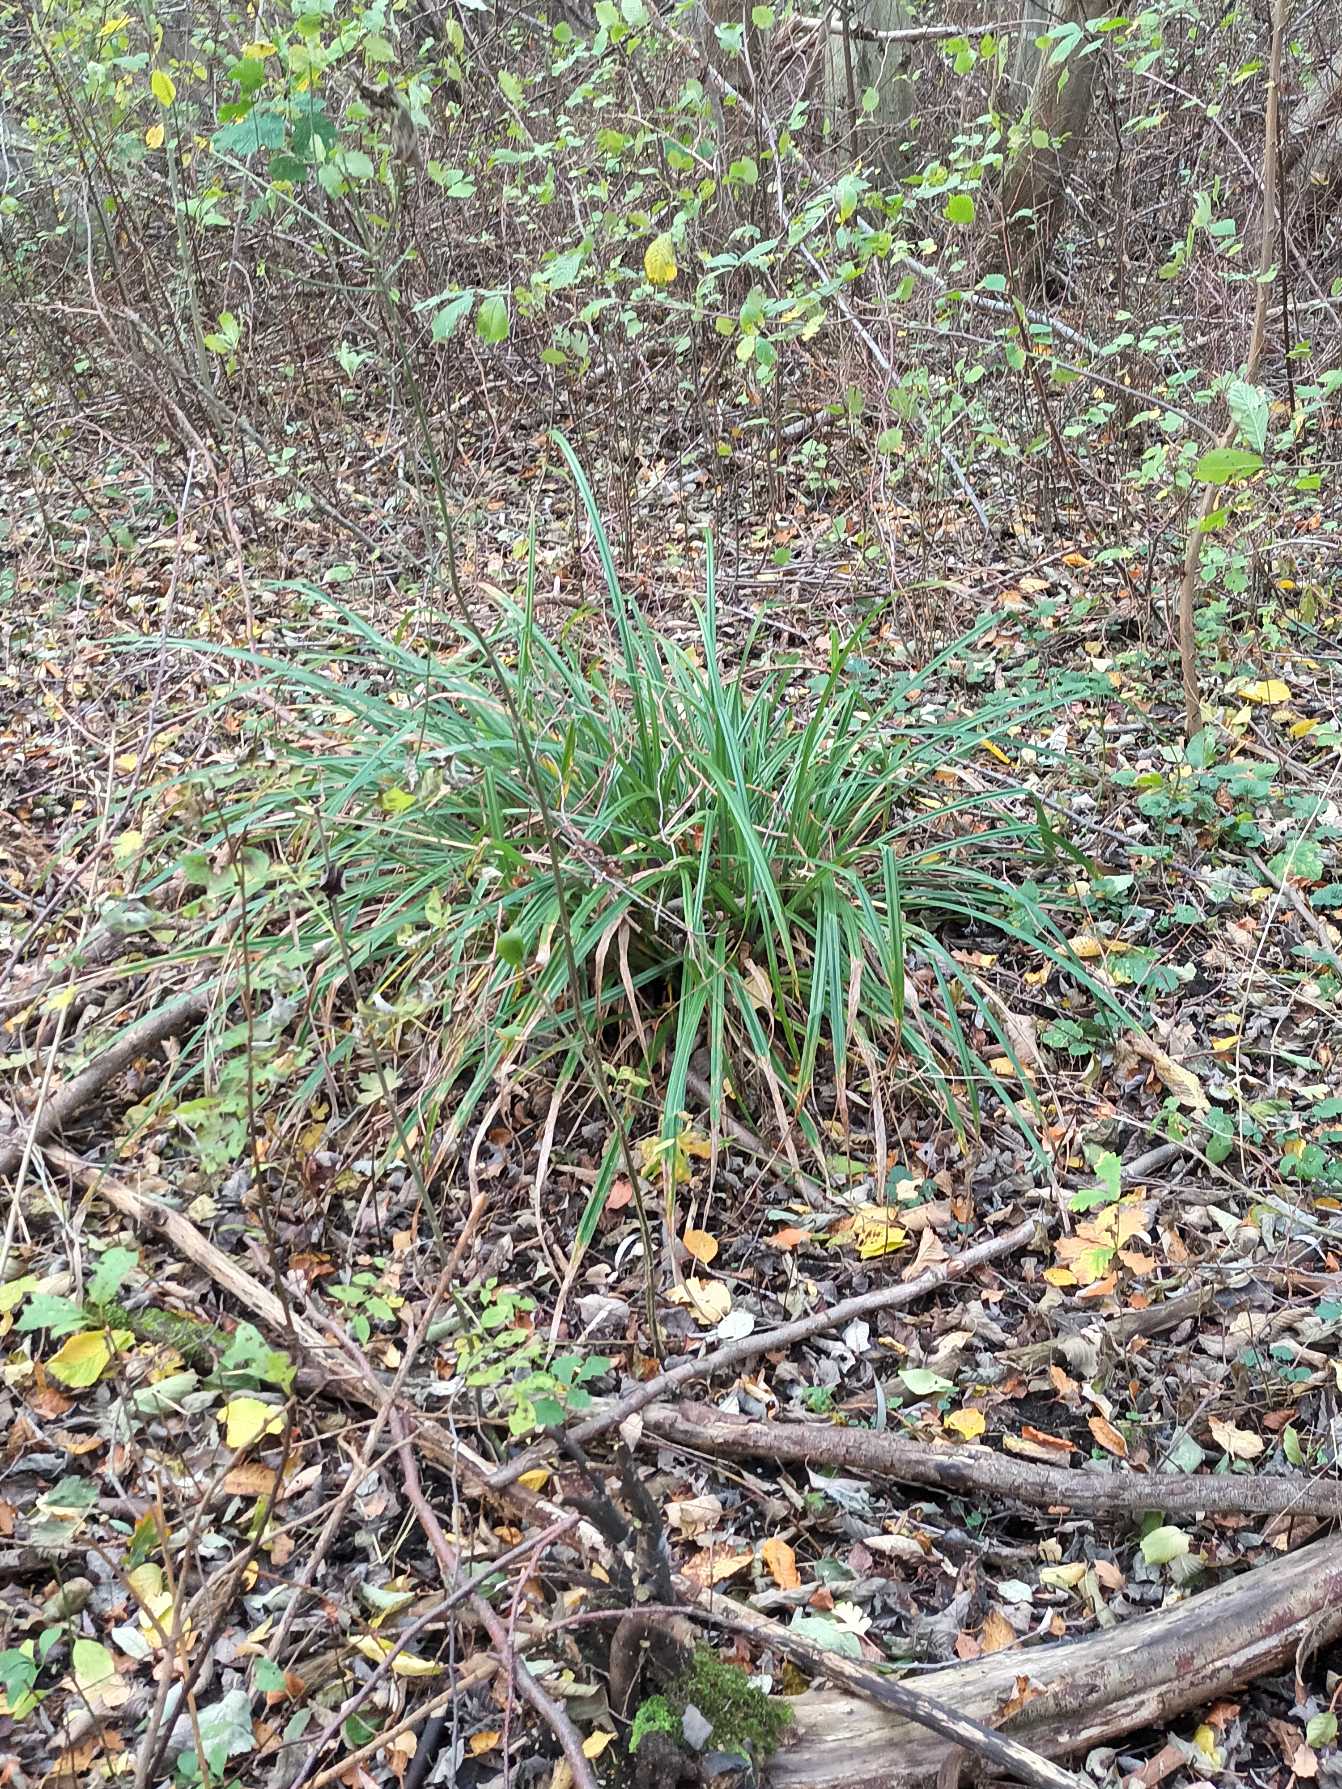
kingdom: Plantae
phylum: Tracheophyta
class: Liliopsida
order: Poales
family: Cyperaceae
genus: Carex
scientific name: Carex pendula
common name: Kæmpe-star
